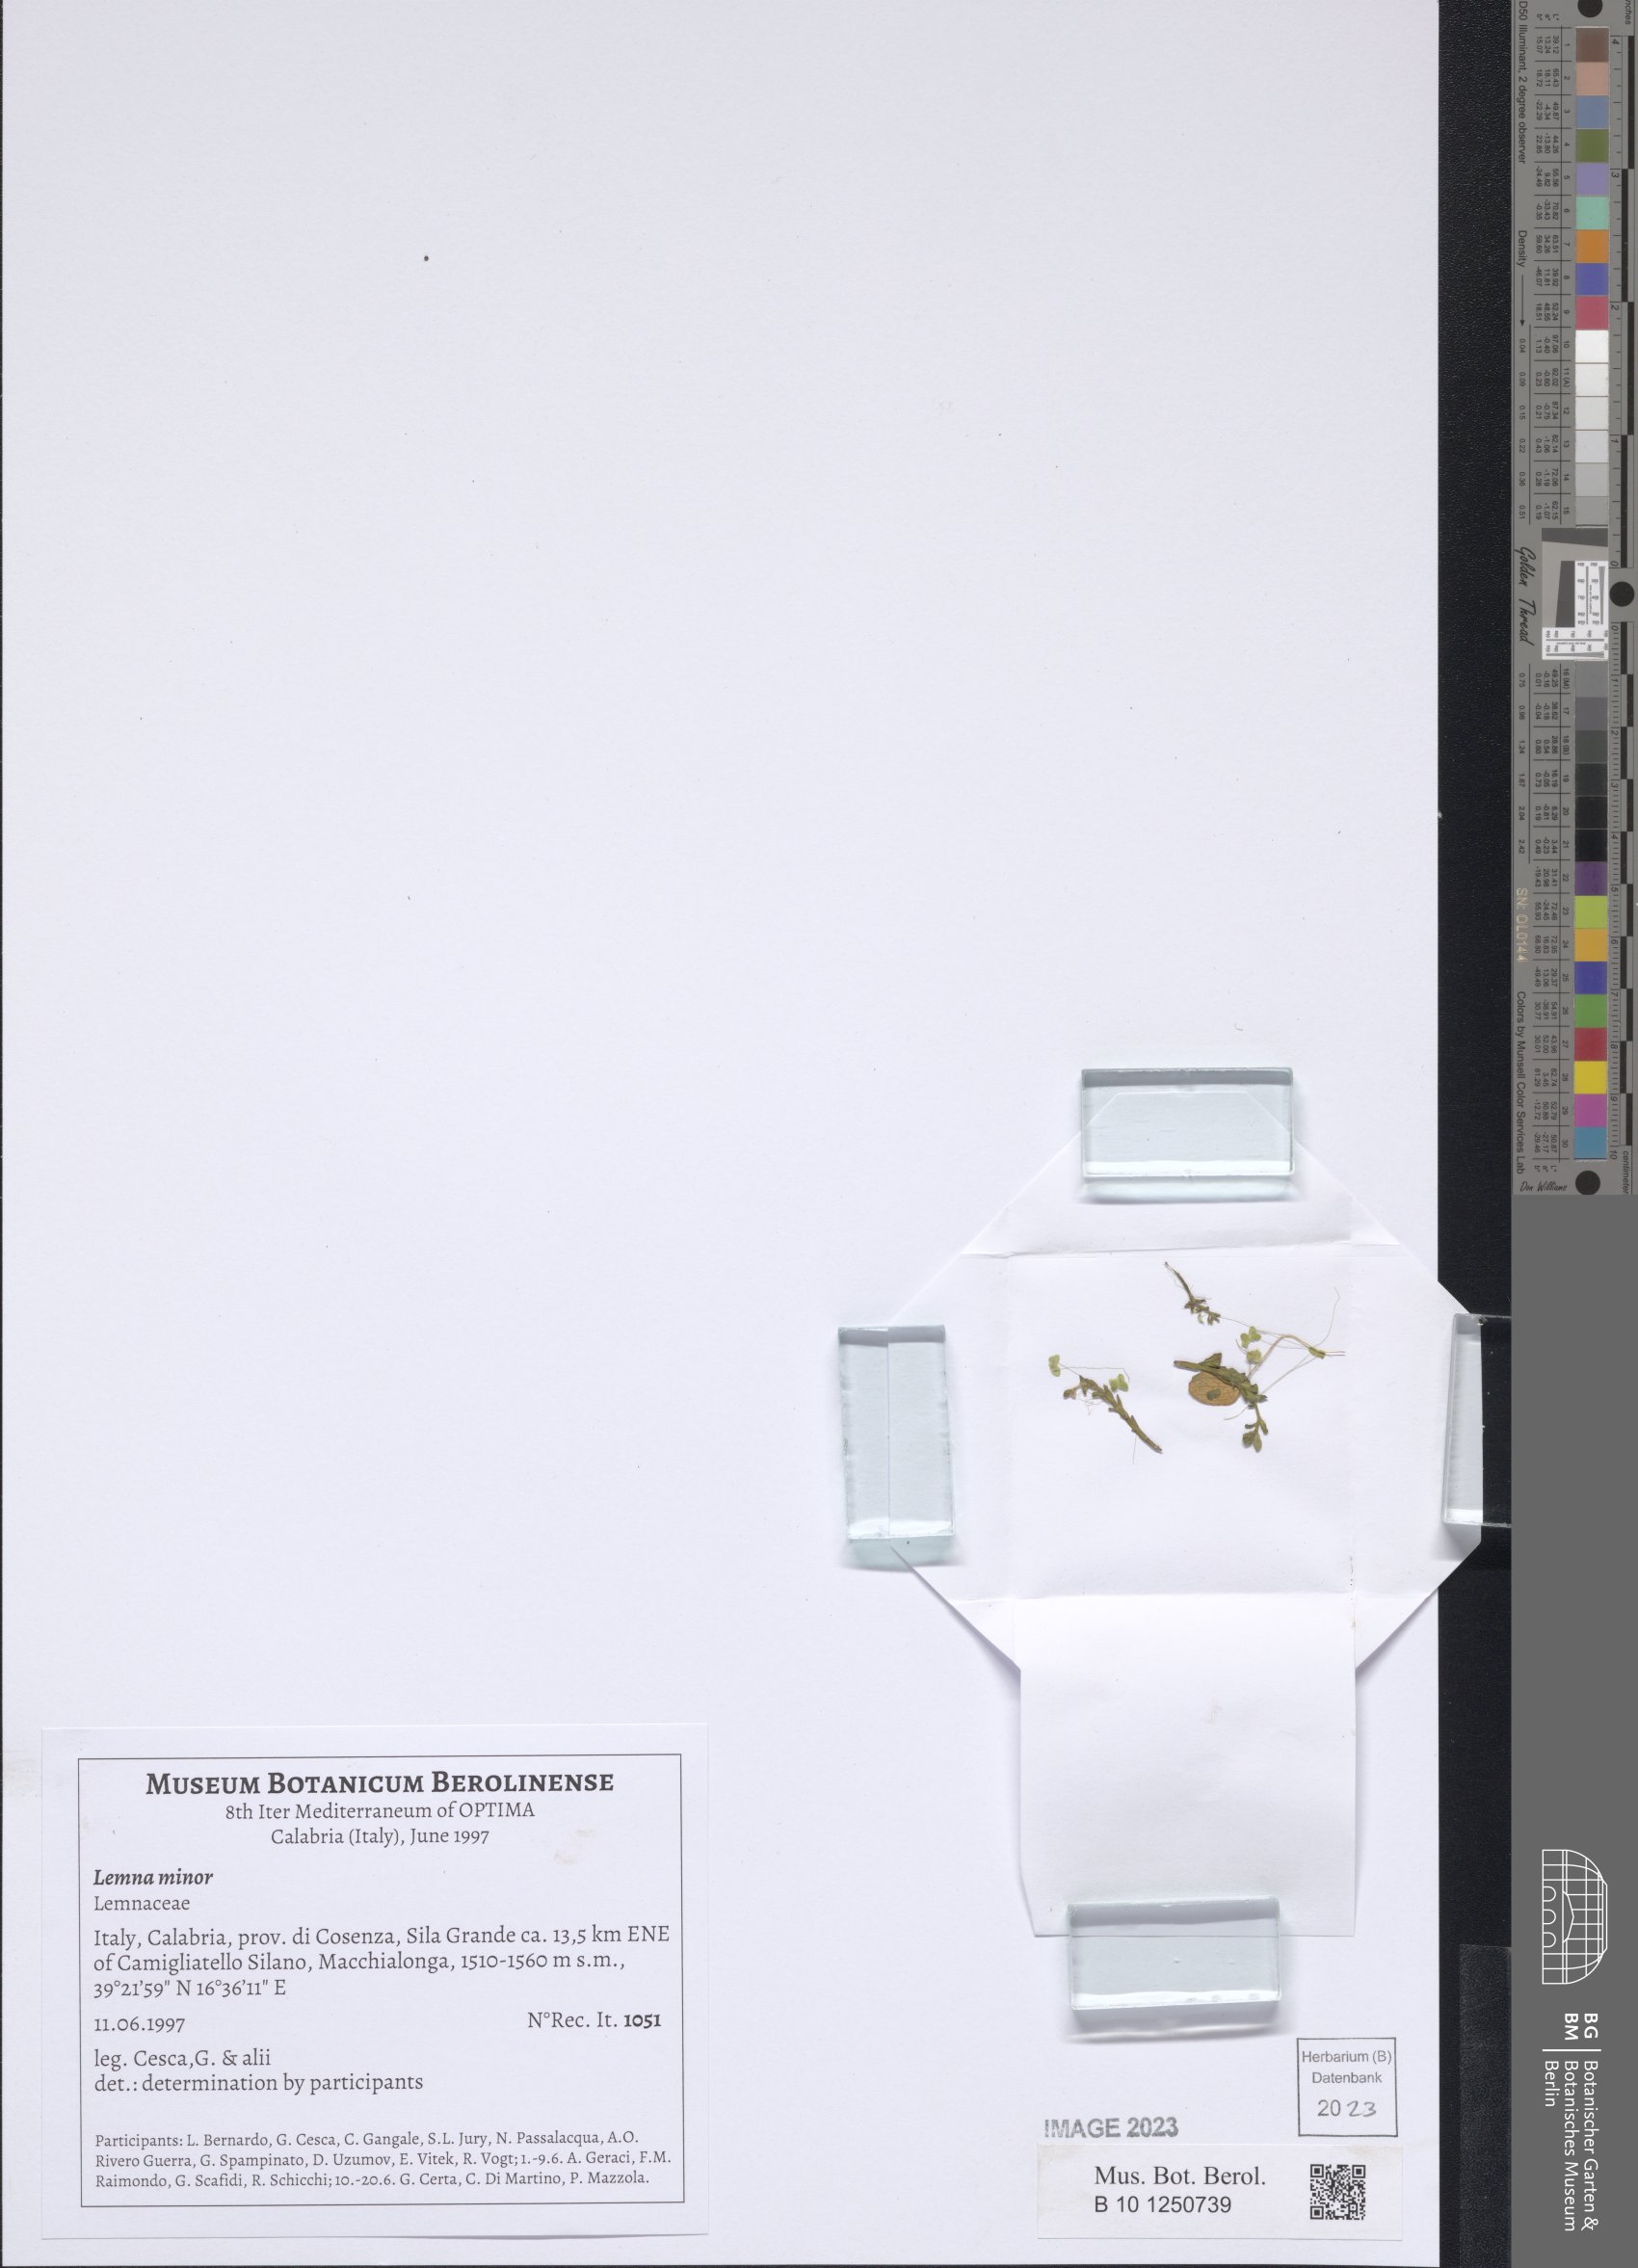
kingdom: Plantae
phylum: Tracheophyta
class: Liliopsida
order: Alismatales
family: Araceae
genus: Lemna
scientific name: Lemna minor
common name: Common duckweed
